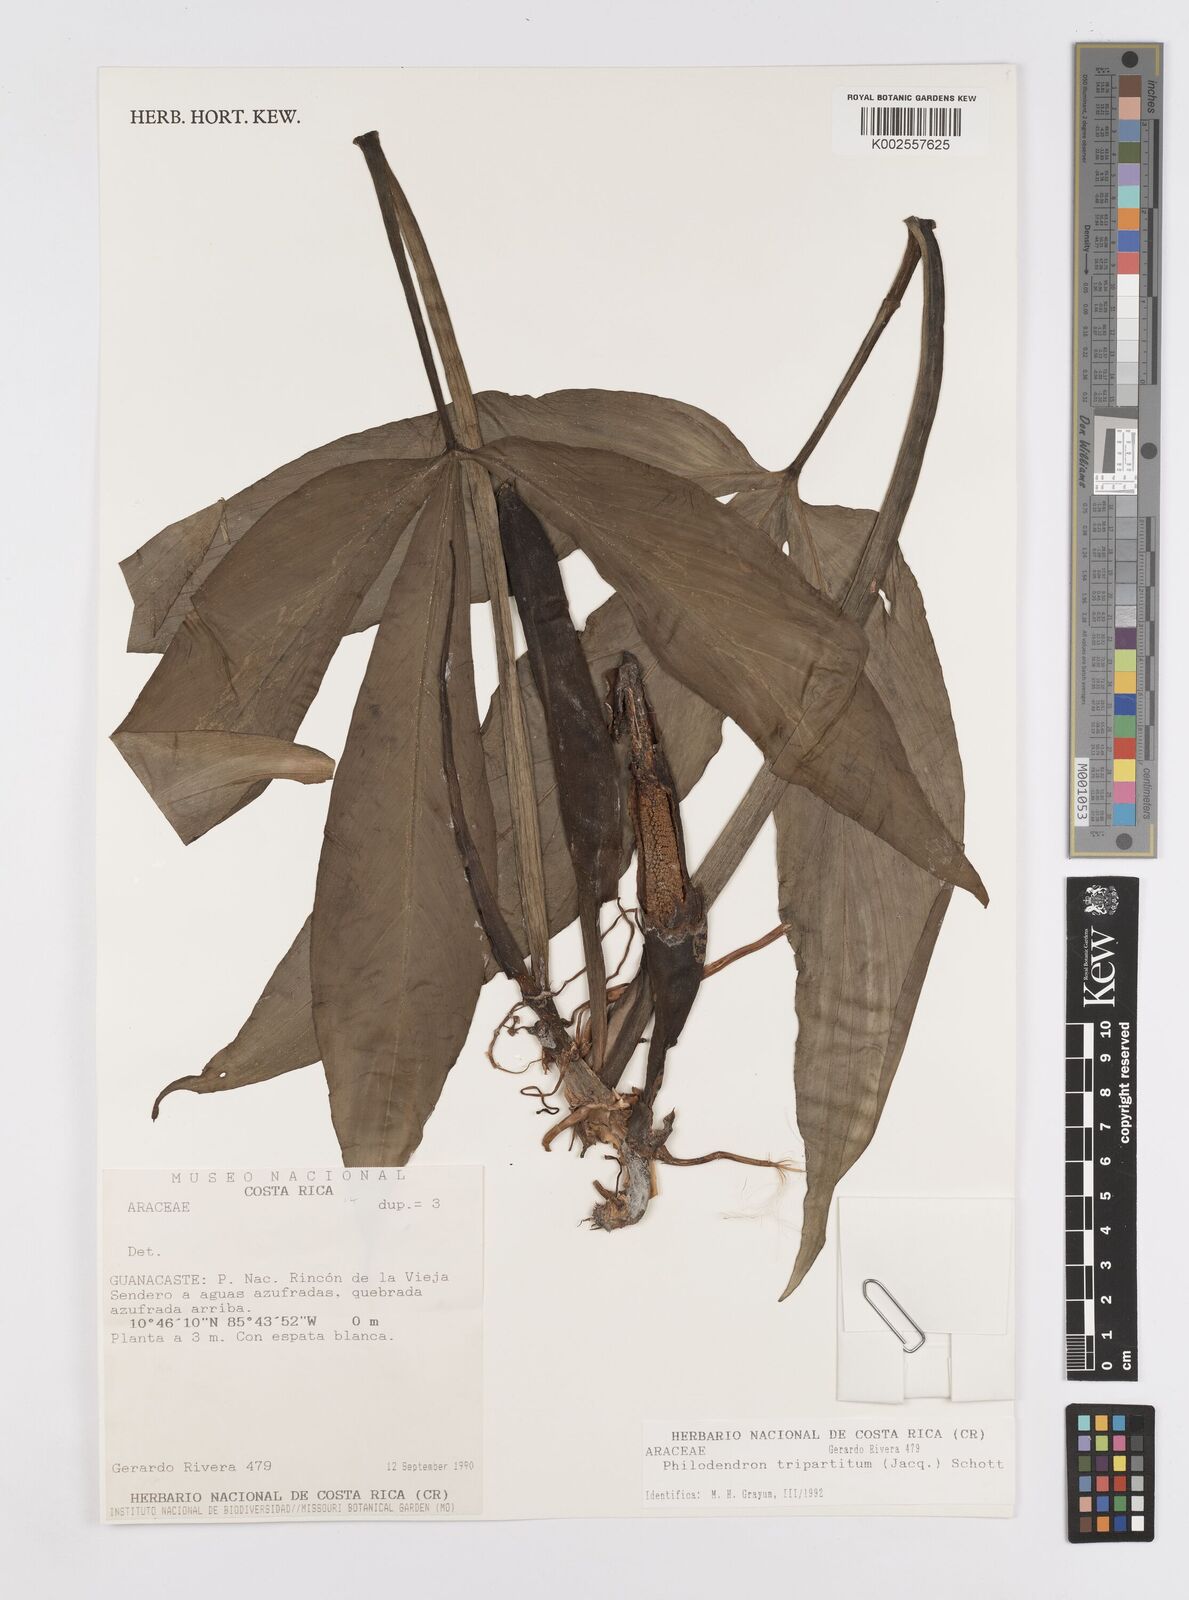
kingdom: Plantae
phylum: Tracheophyta
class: Liliopsida
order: Alismatales
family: Araceae
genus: Philodendron
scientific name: Philodendron tripartitum
